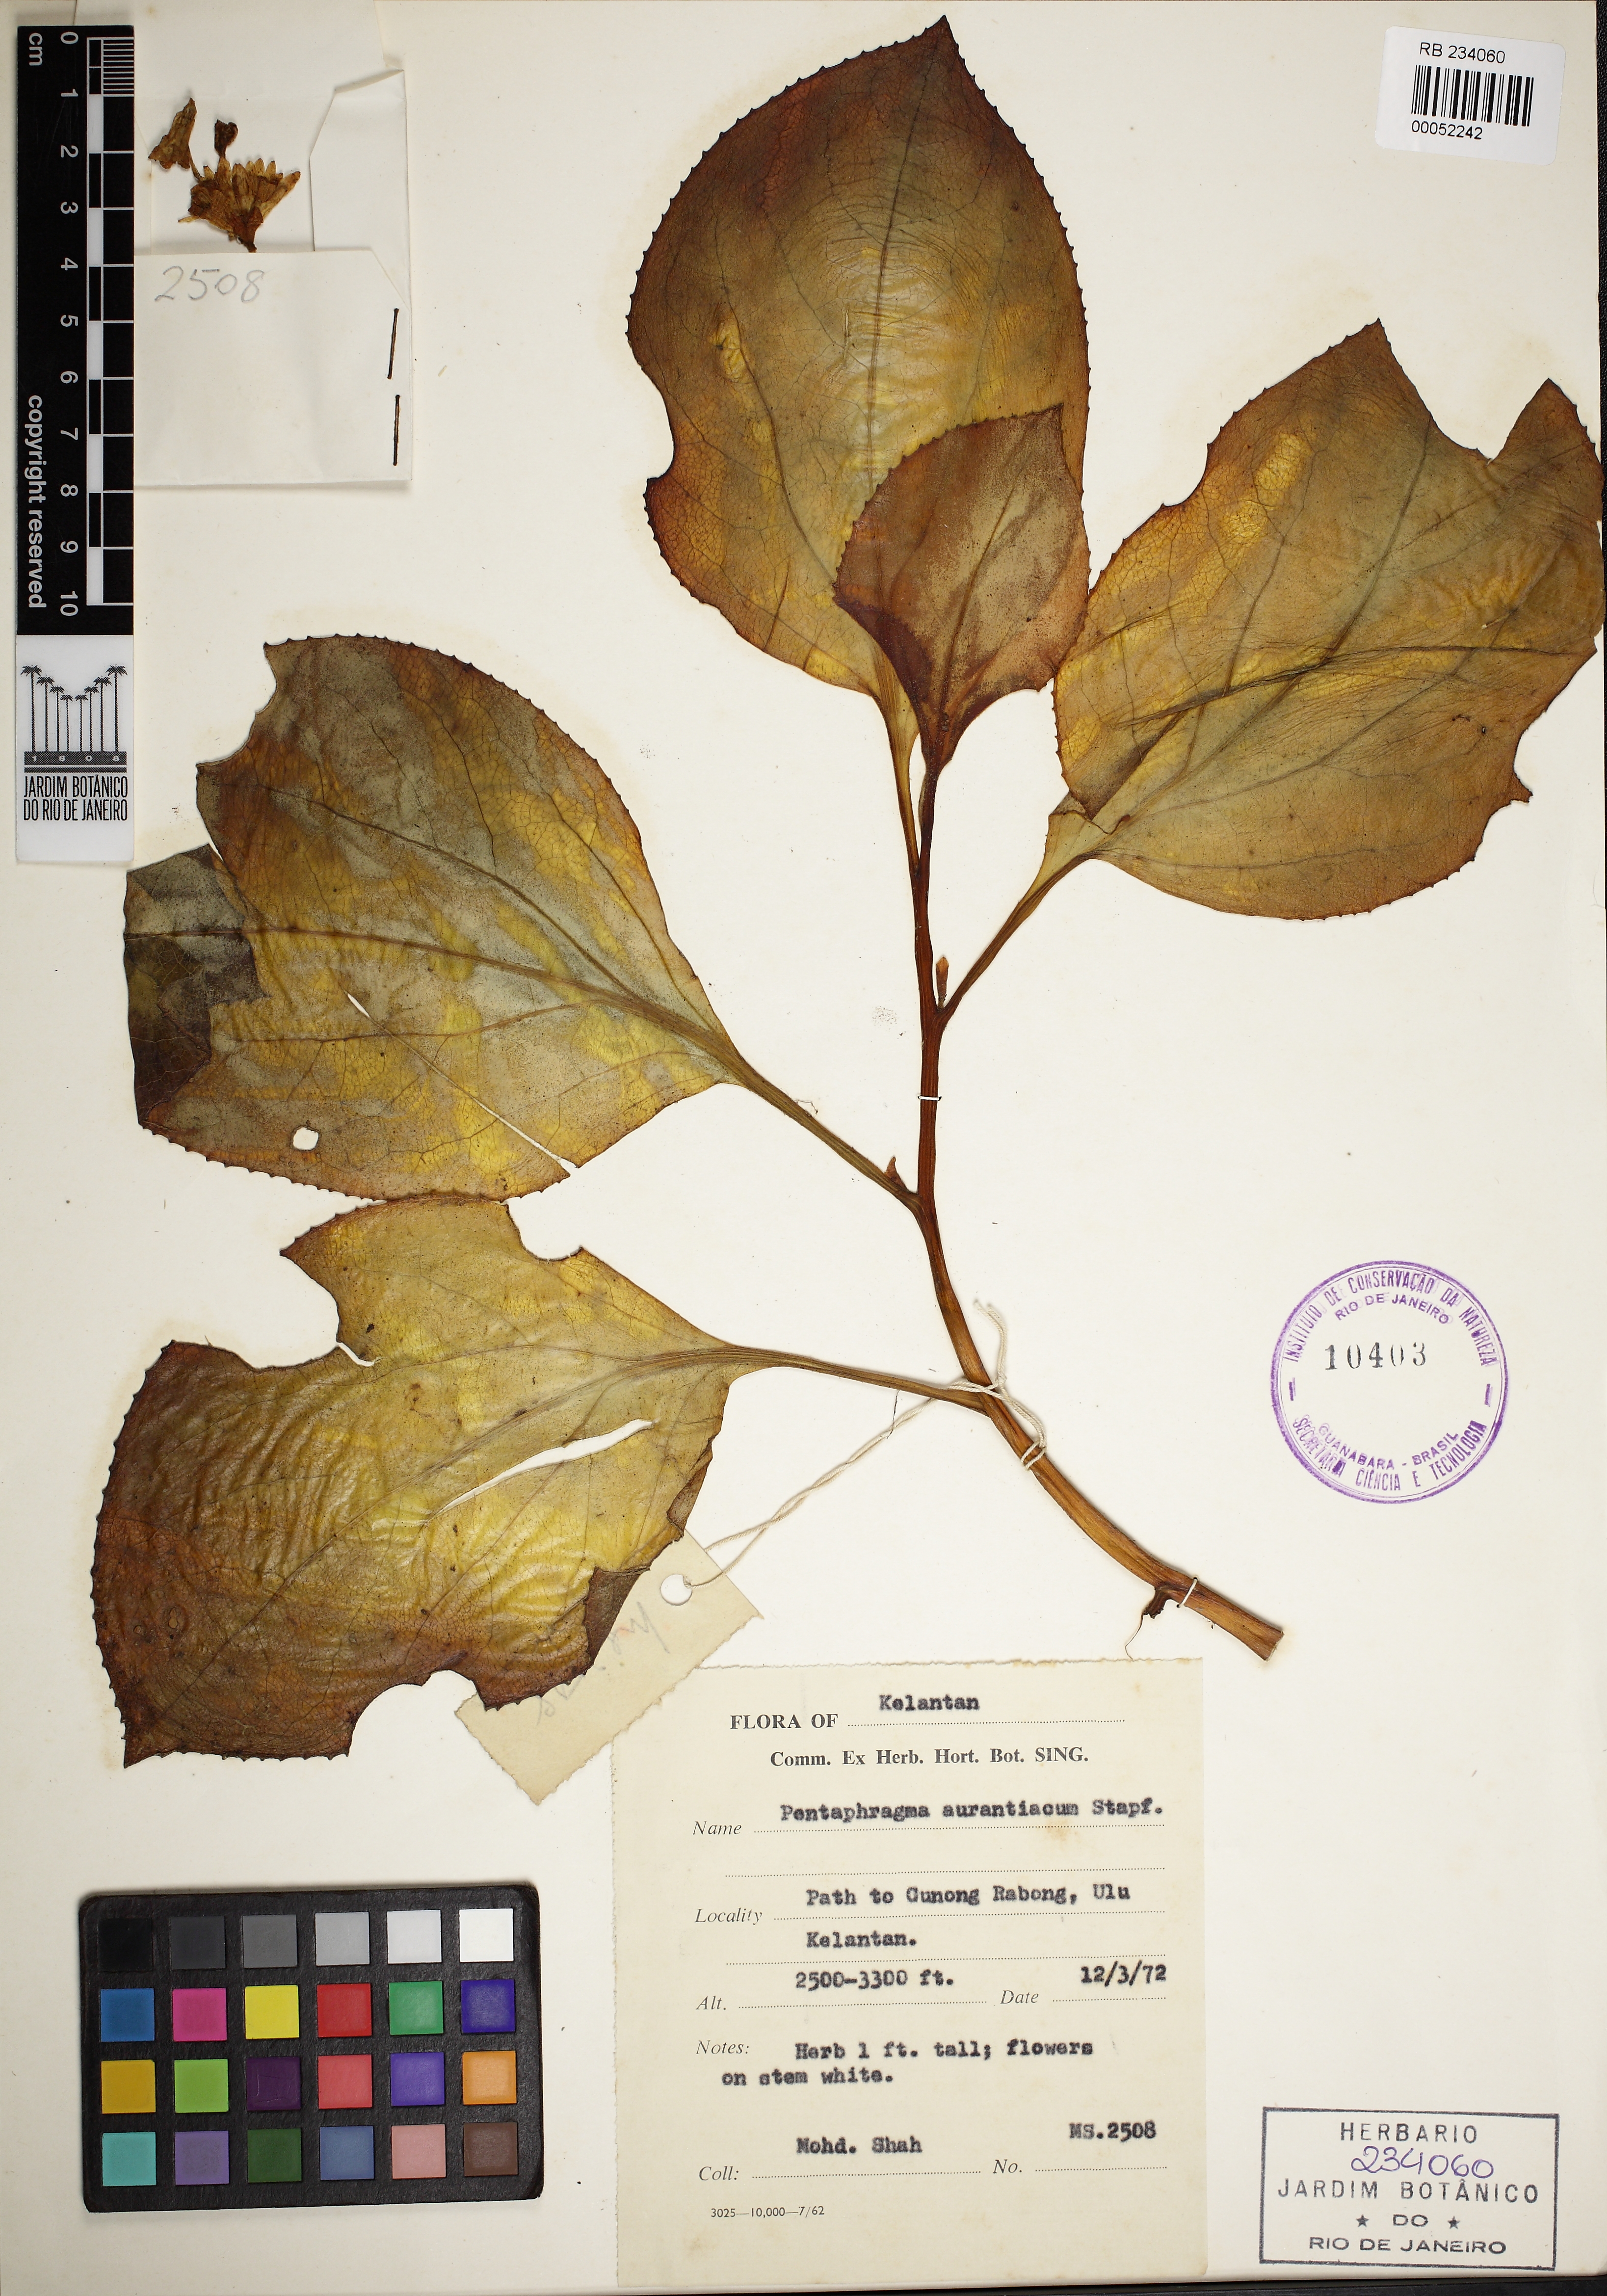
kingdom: Plantae
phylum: Tracheophyta
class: Magnoliopsida
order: Asterales
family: Pentaphragmataceae
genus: Pentaphragma
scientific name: Pentaphragma aurantiacum
